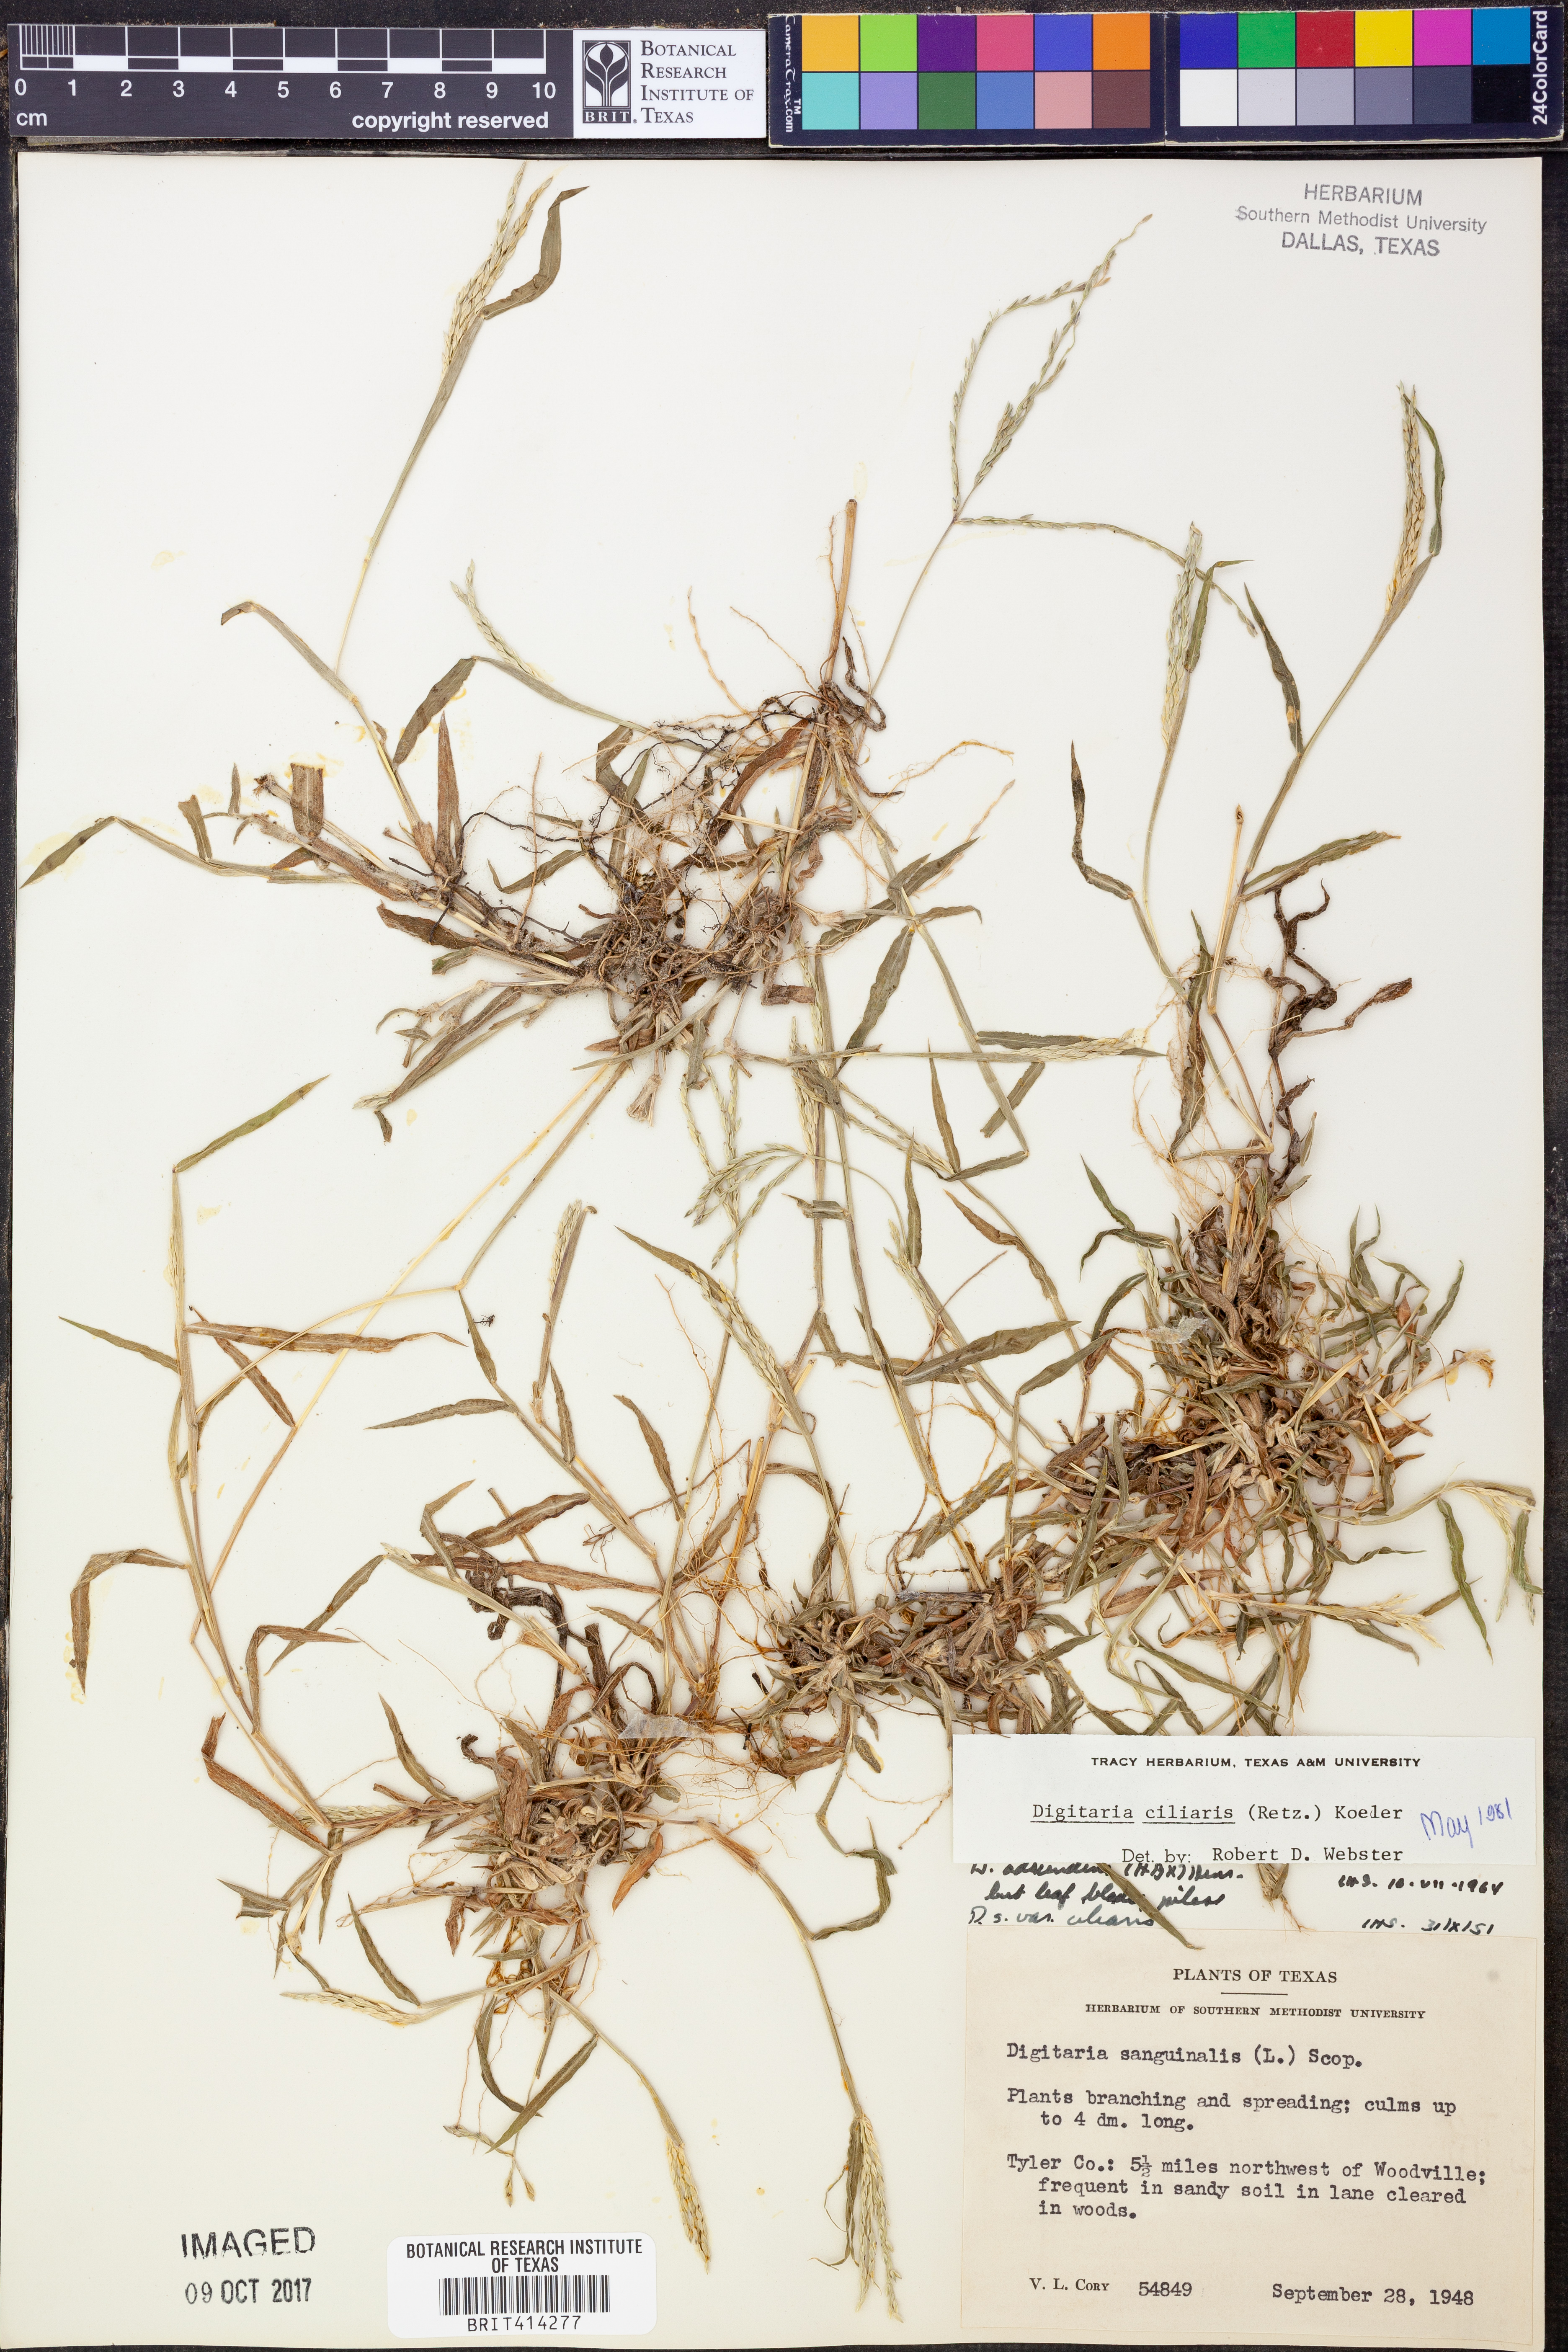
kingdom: Plantae
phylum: Tracheophyta
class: Liliopsida
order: Poales
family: Poaceae
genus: Digitaria
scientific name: Digitaria ciliaris
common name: Tropical finger-grass
